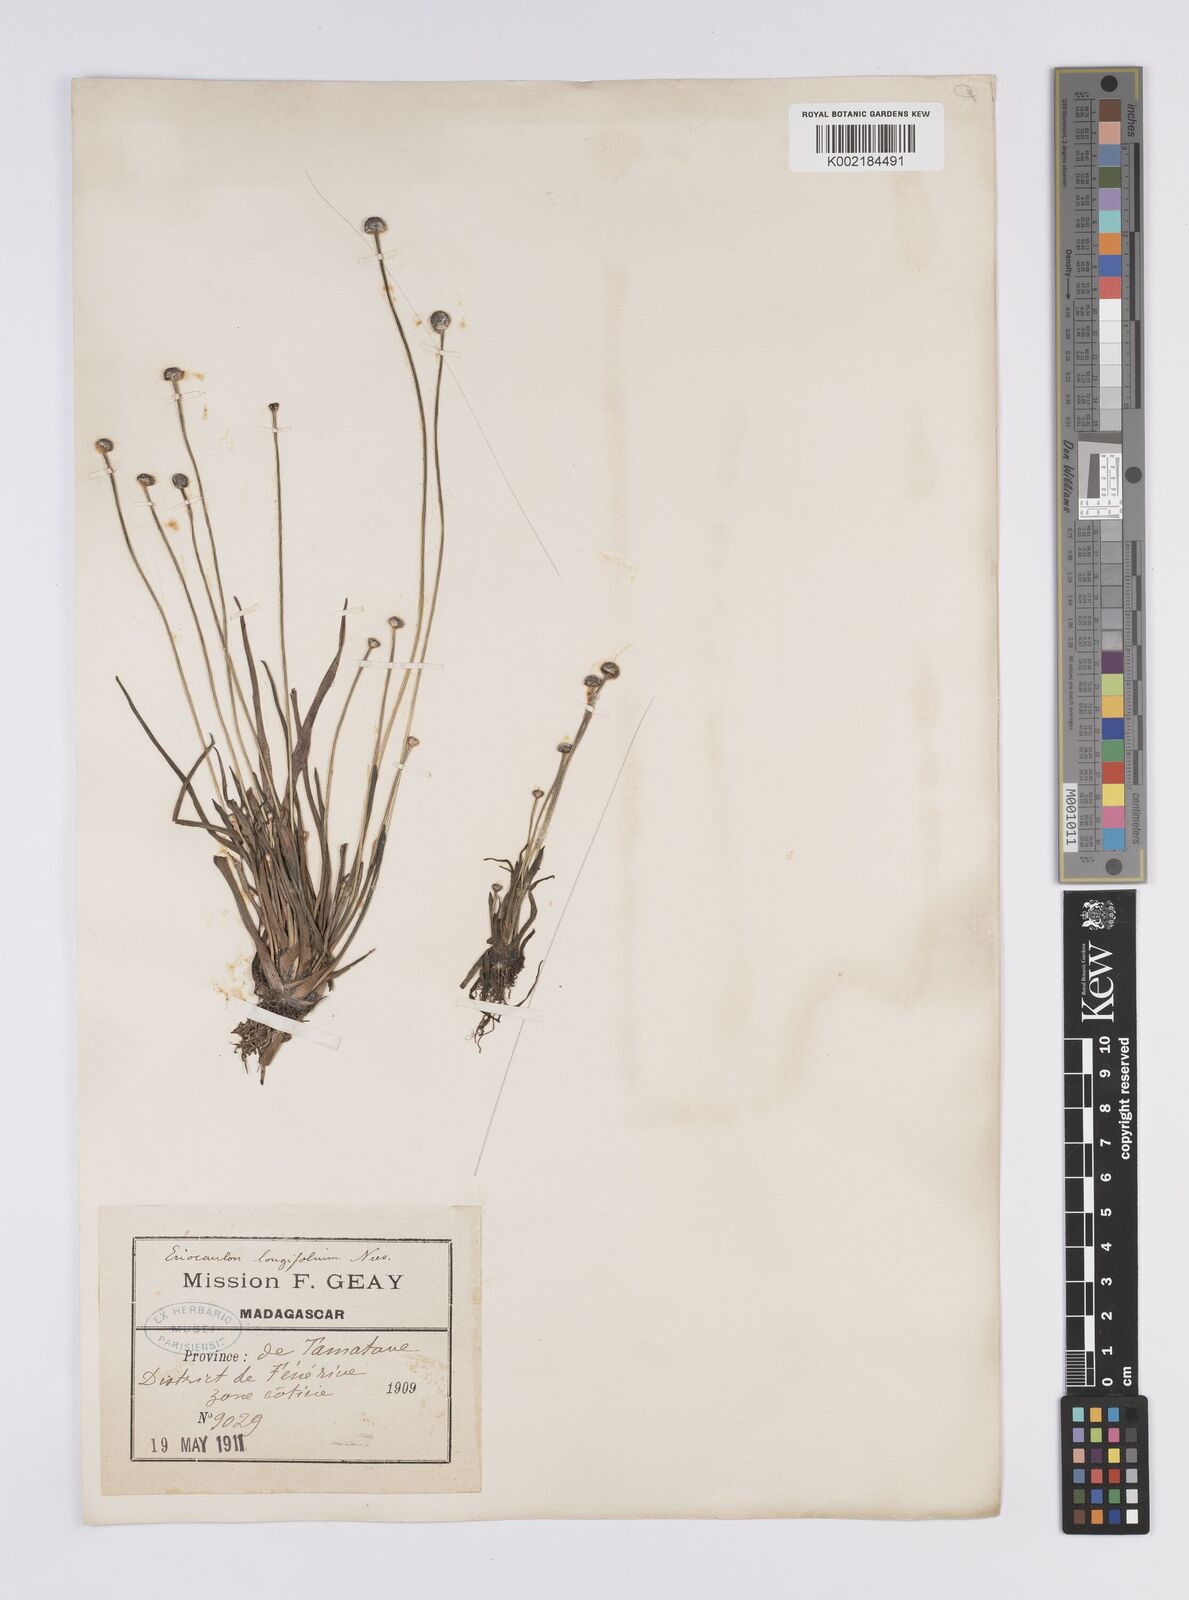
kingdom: Plantae
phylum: Tracheophyta
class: Liliopsida
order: Poales
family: Eriocaulaceae
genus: Eriocaulon
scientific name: Eriocaulon willdenovianum
